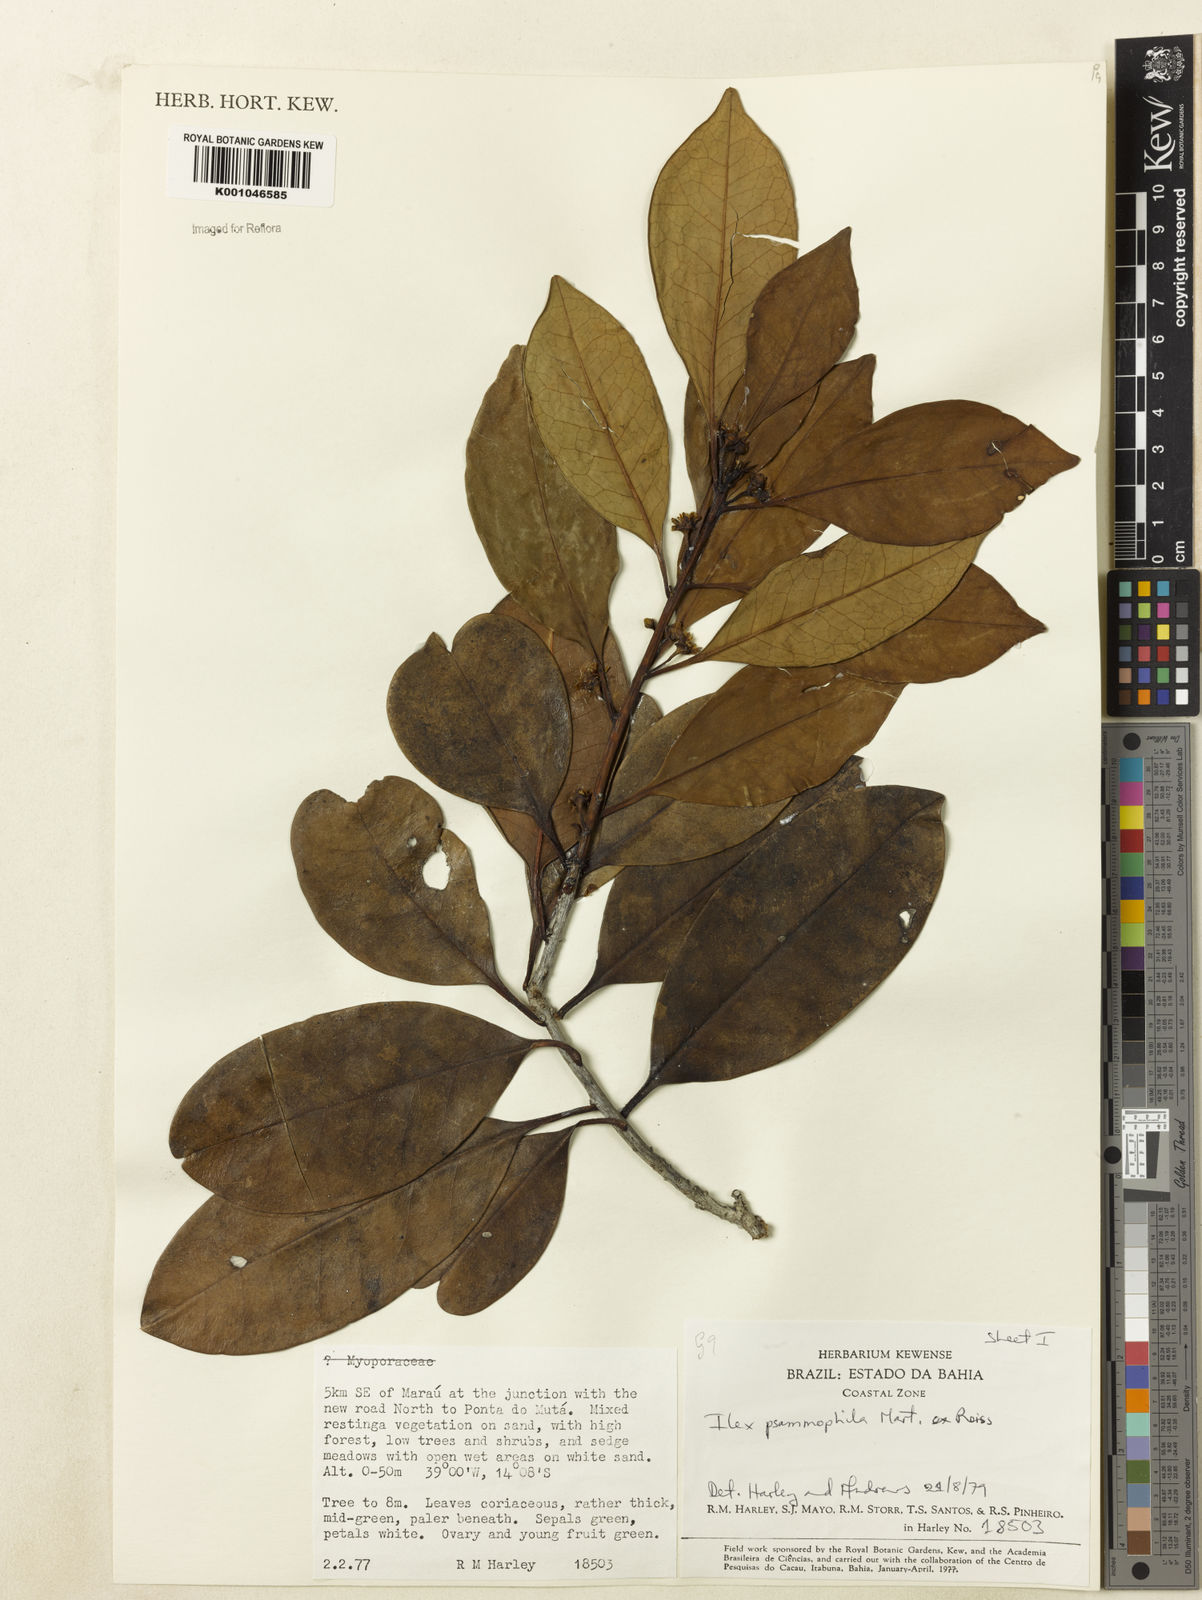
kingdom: Plantae
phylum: Tracheophyta
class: Magnoliopsida
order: Aquifoliales
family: Aquifoliaceae
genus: Ilex
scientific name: Ilex psammophila
